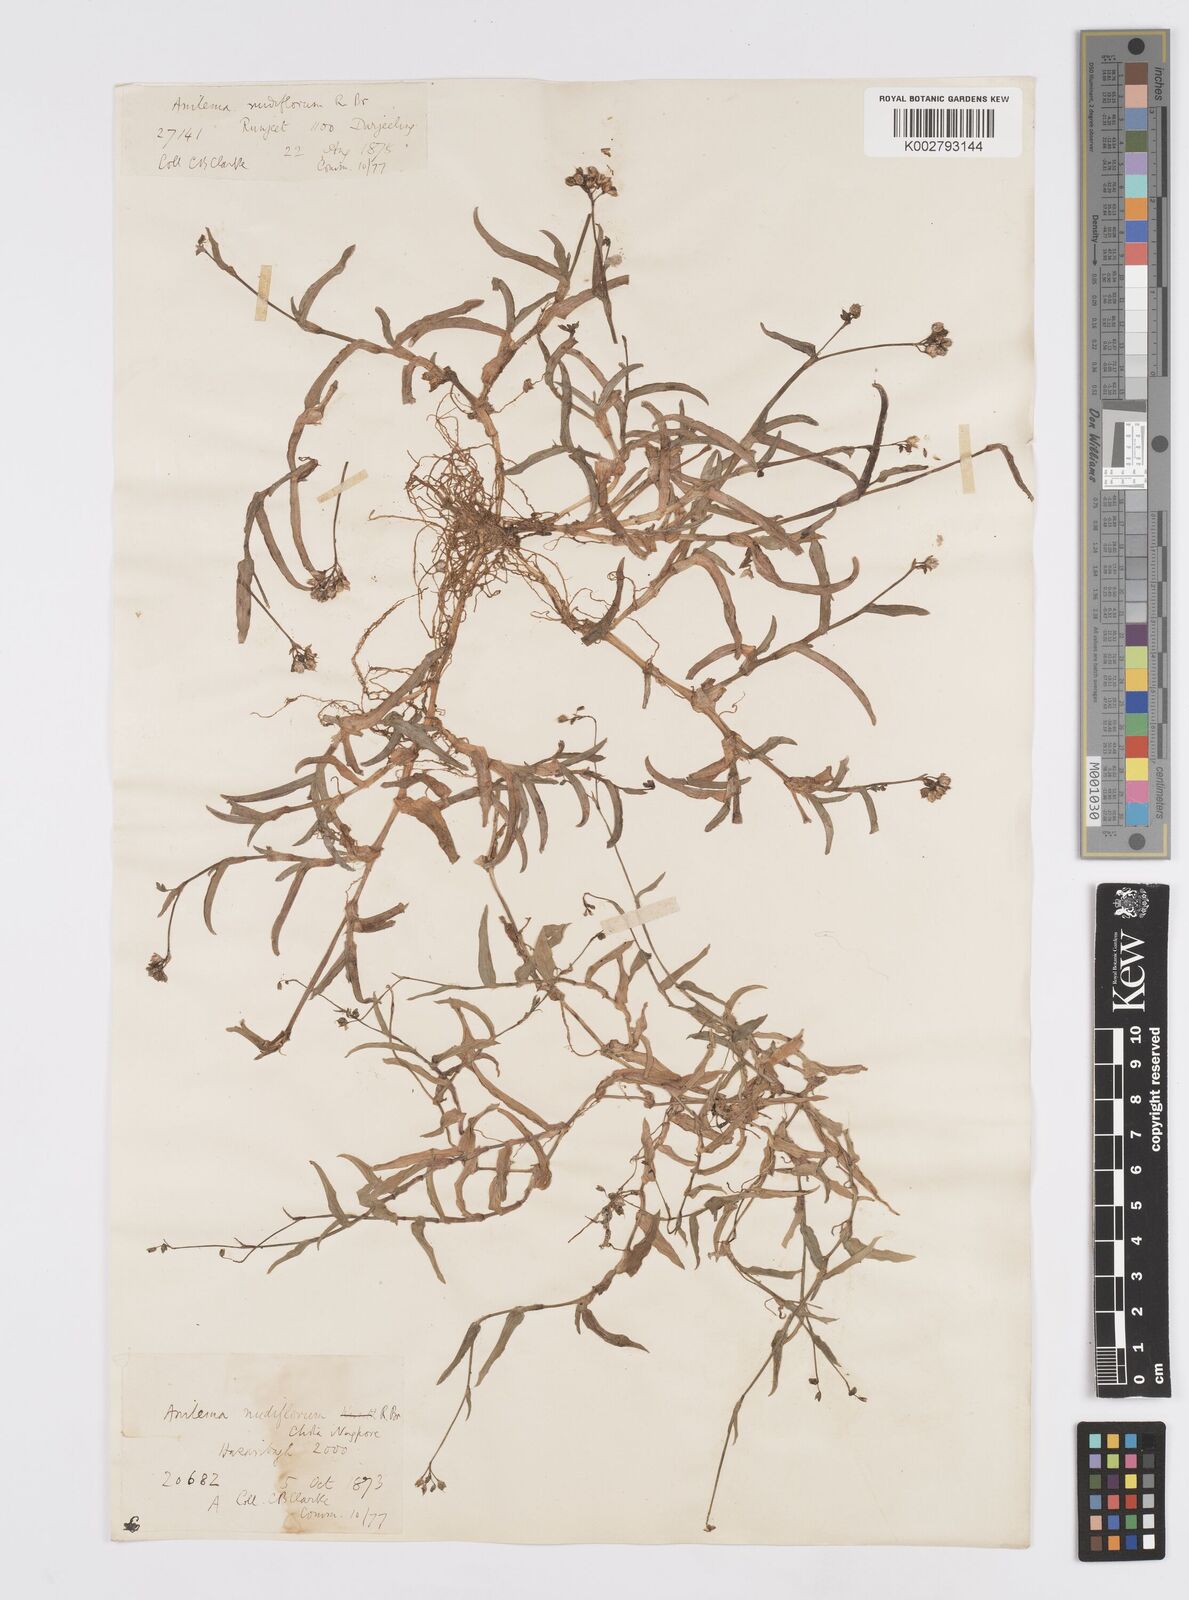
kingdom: Plantae
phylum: Tracheophyta
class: Liliopsida
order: Commelinales
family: Commelinaceae
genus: Murdannia
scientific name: Murdannia nudiflora
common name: Nakedstem dewflower
